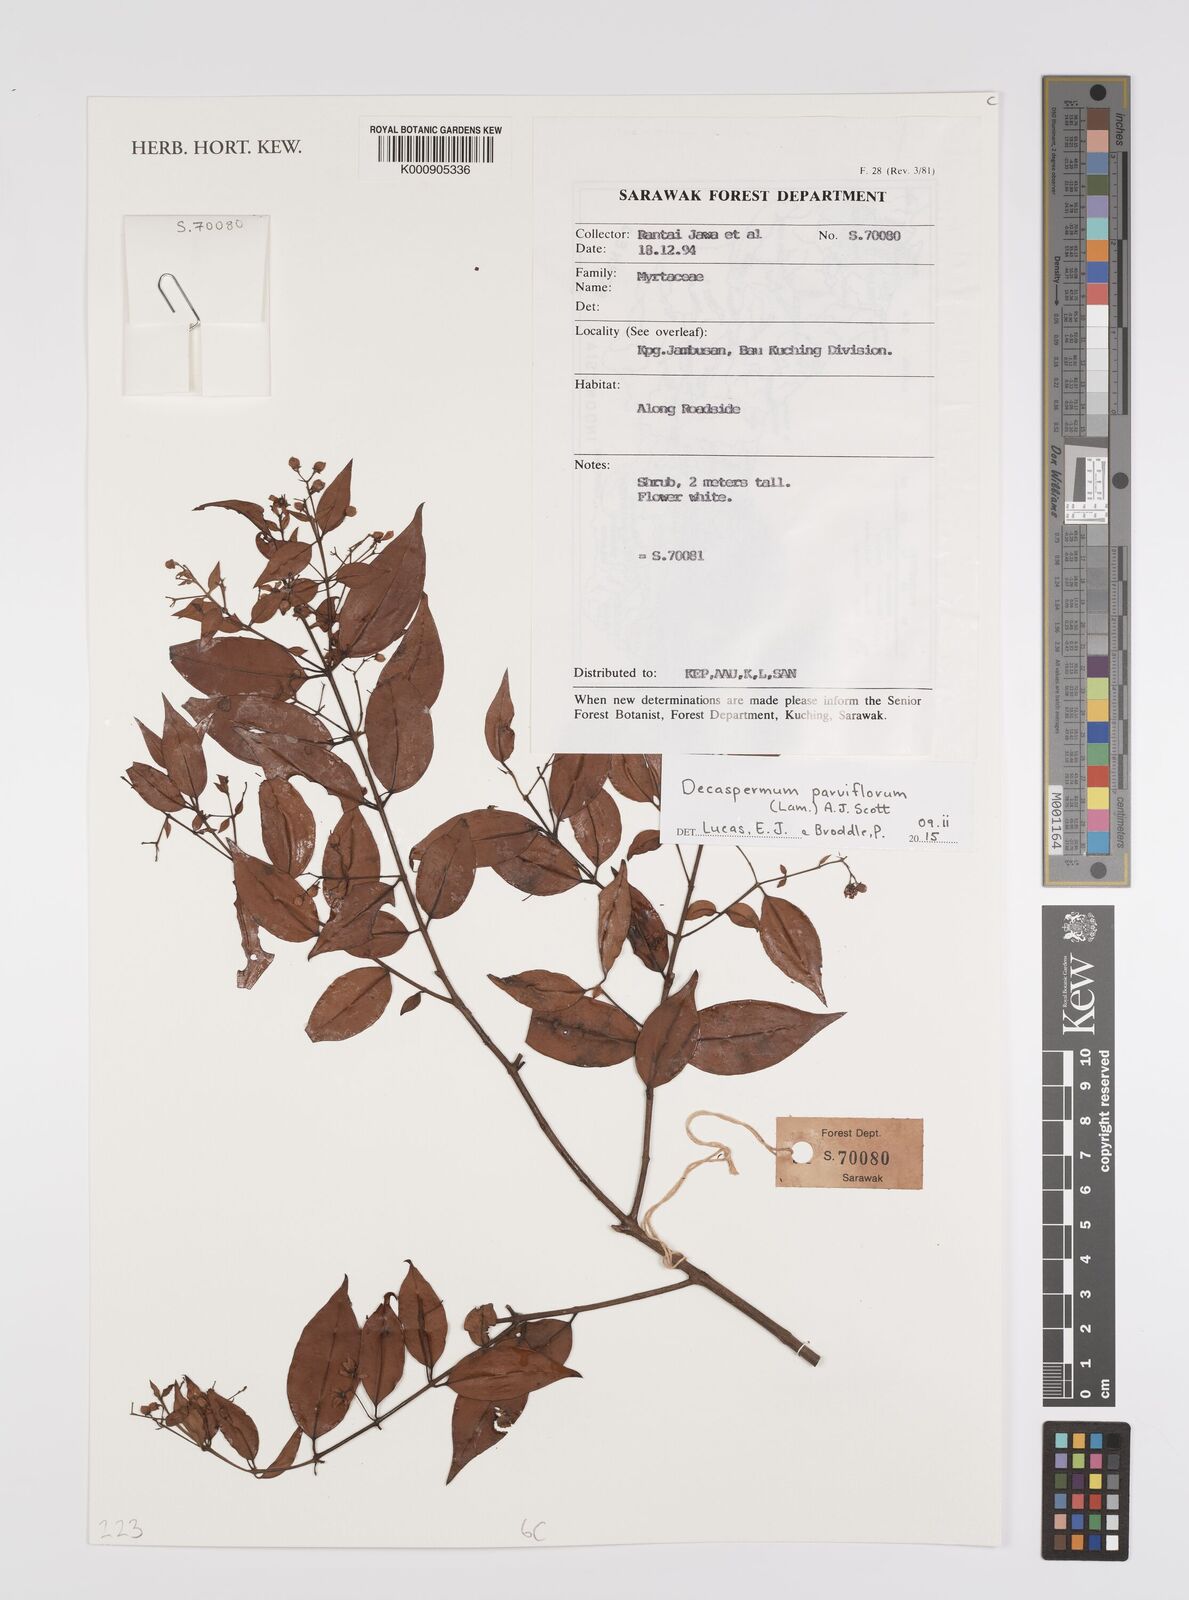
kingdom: Plantae
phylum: Tracheophyta
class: Magnoliopsida
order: Myrtales
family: Myrtaceae
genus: Decaspermum
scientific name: Decaspermum parviflorum
